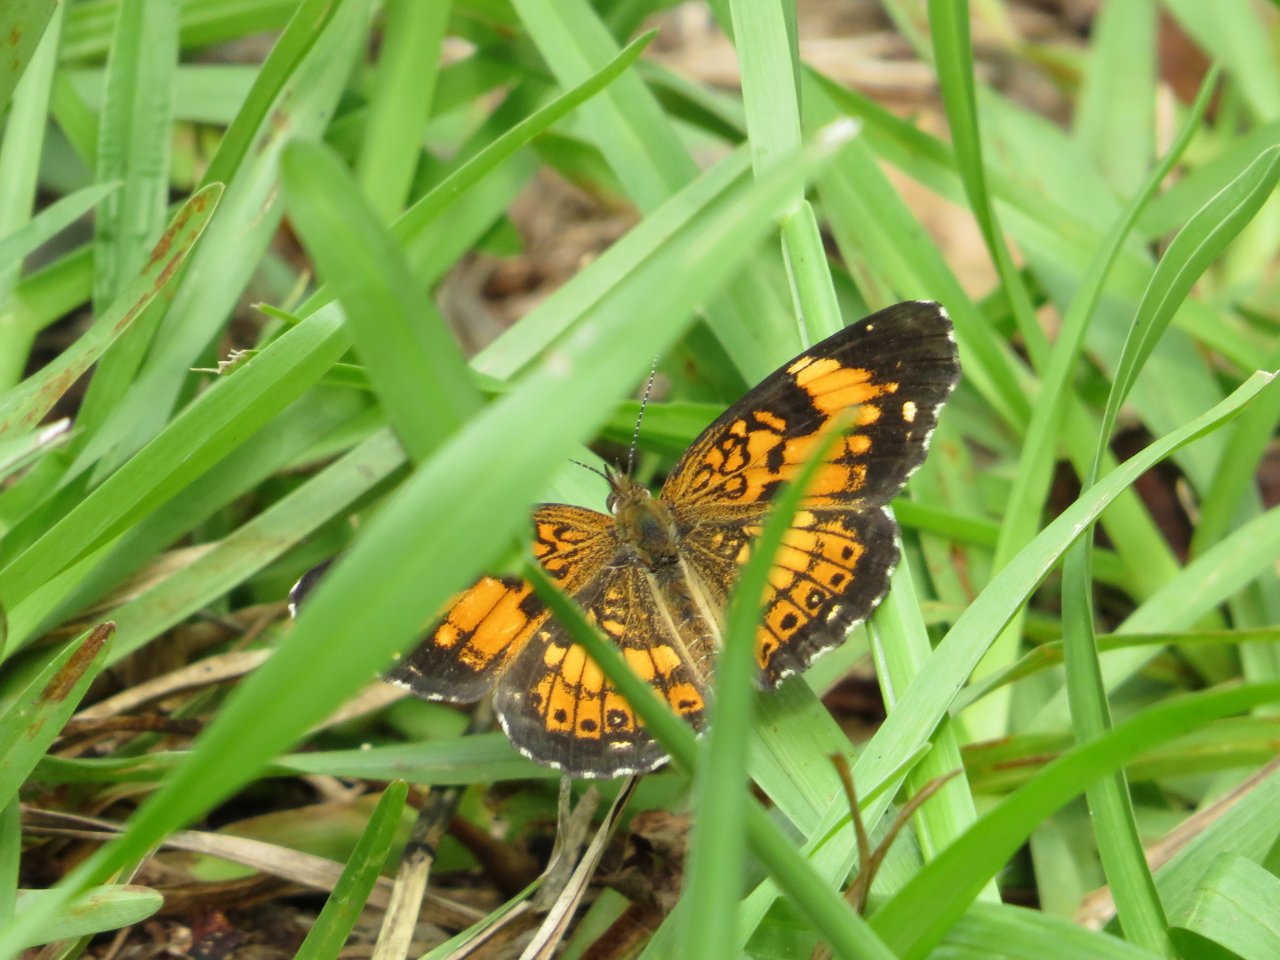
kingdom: Animalia
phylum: Arthropoda
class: Insecta
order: Lepidoptera
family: Nymphalidae
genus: Chlosyne
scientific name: Chlosyne nycteis
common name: Silvery Checkerspot
